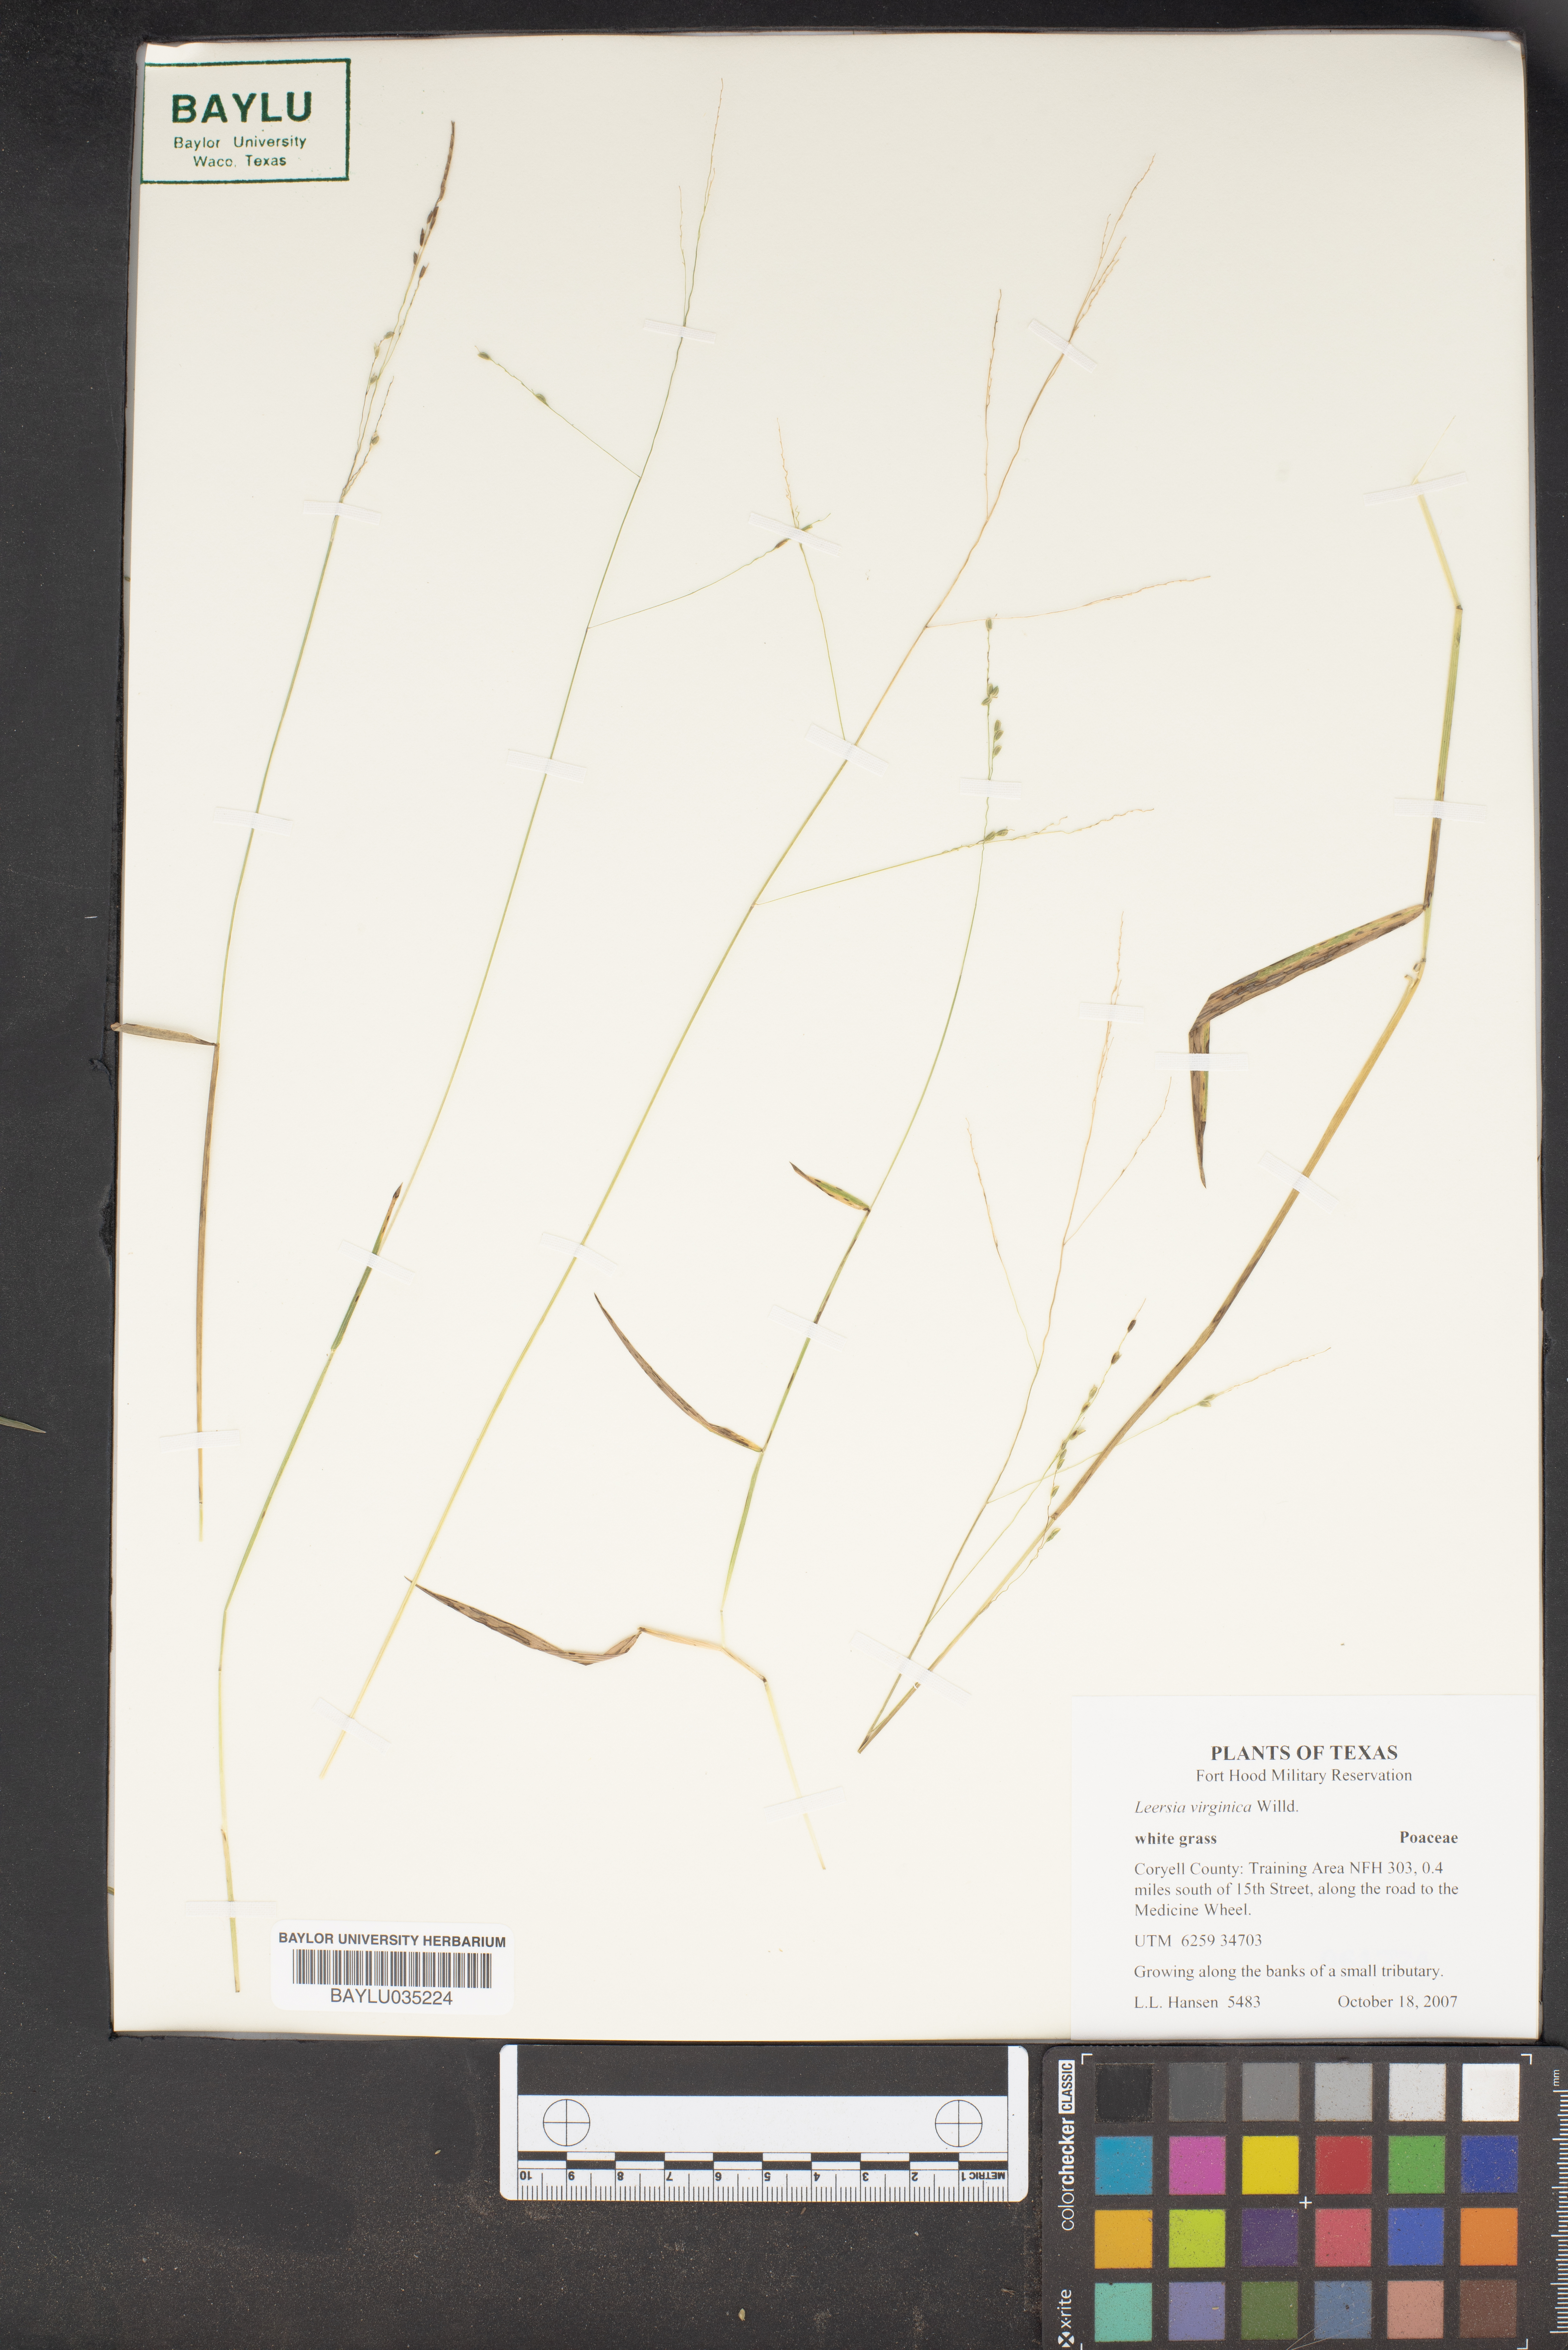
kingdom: Plantae
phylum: Tracheophyta
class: Liliopsida
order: Poales
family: Poaceae
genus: Leersia
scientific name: Leersia virginica
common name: White cutgrass
